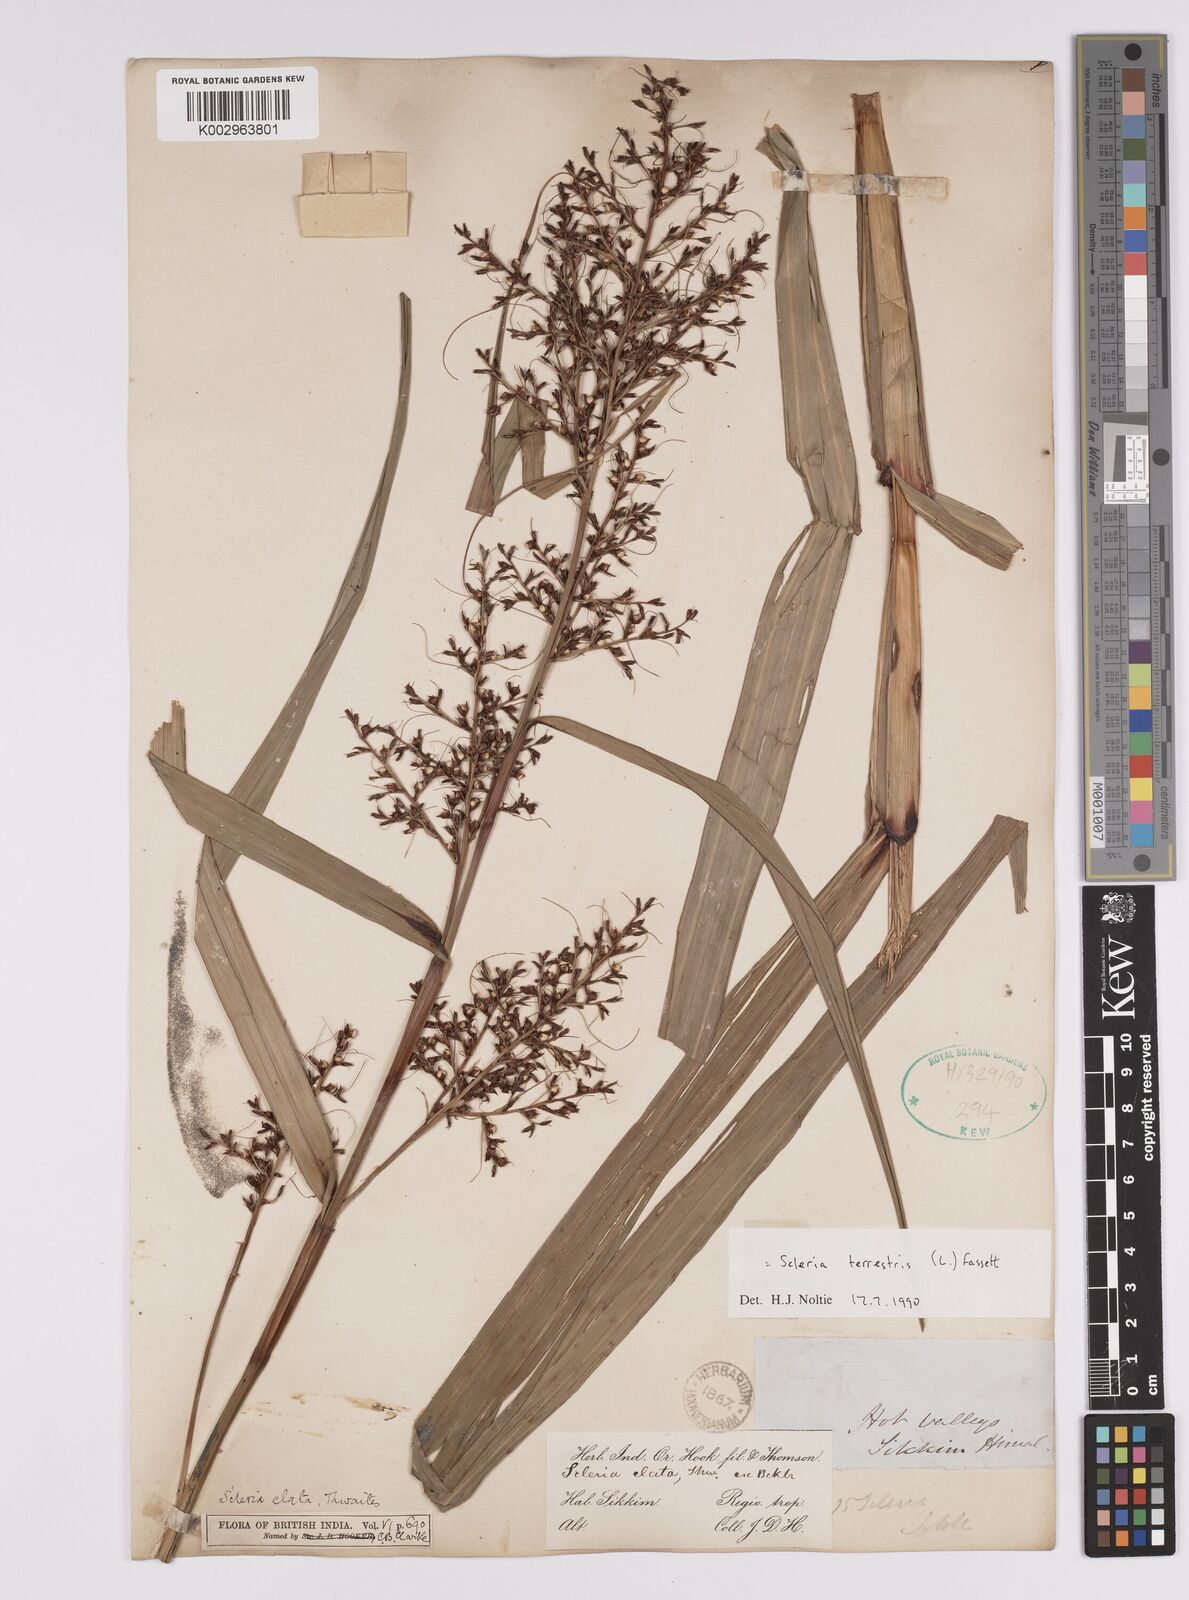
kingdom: Plantae
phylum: Tracheophyta
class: Liliopsida
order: Poales
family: Cyperaceae
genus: Scleria
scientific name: Scleria terrestris
